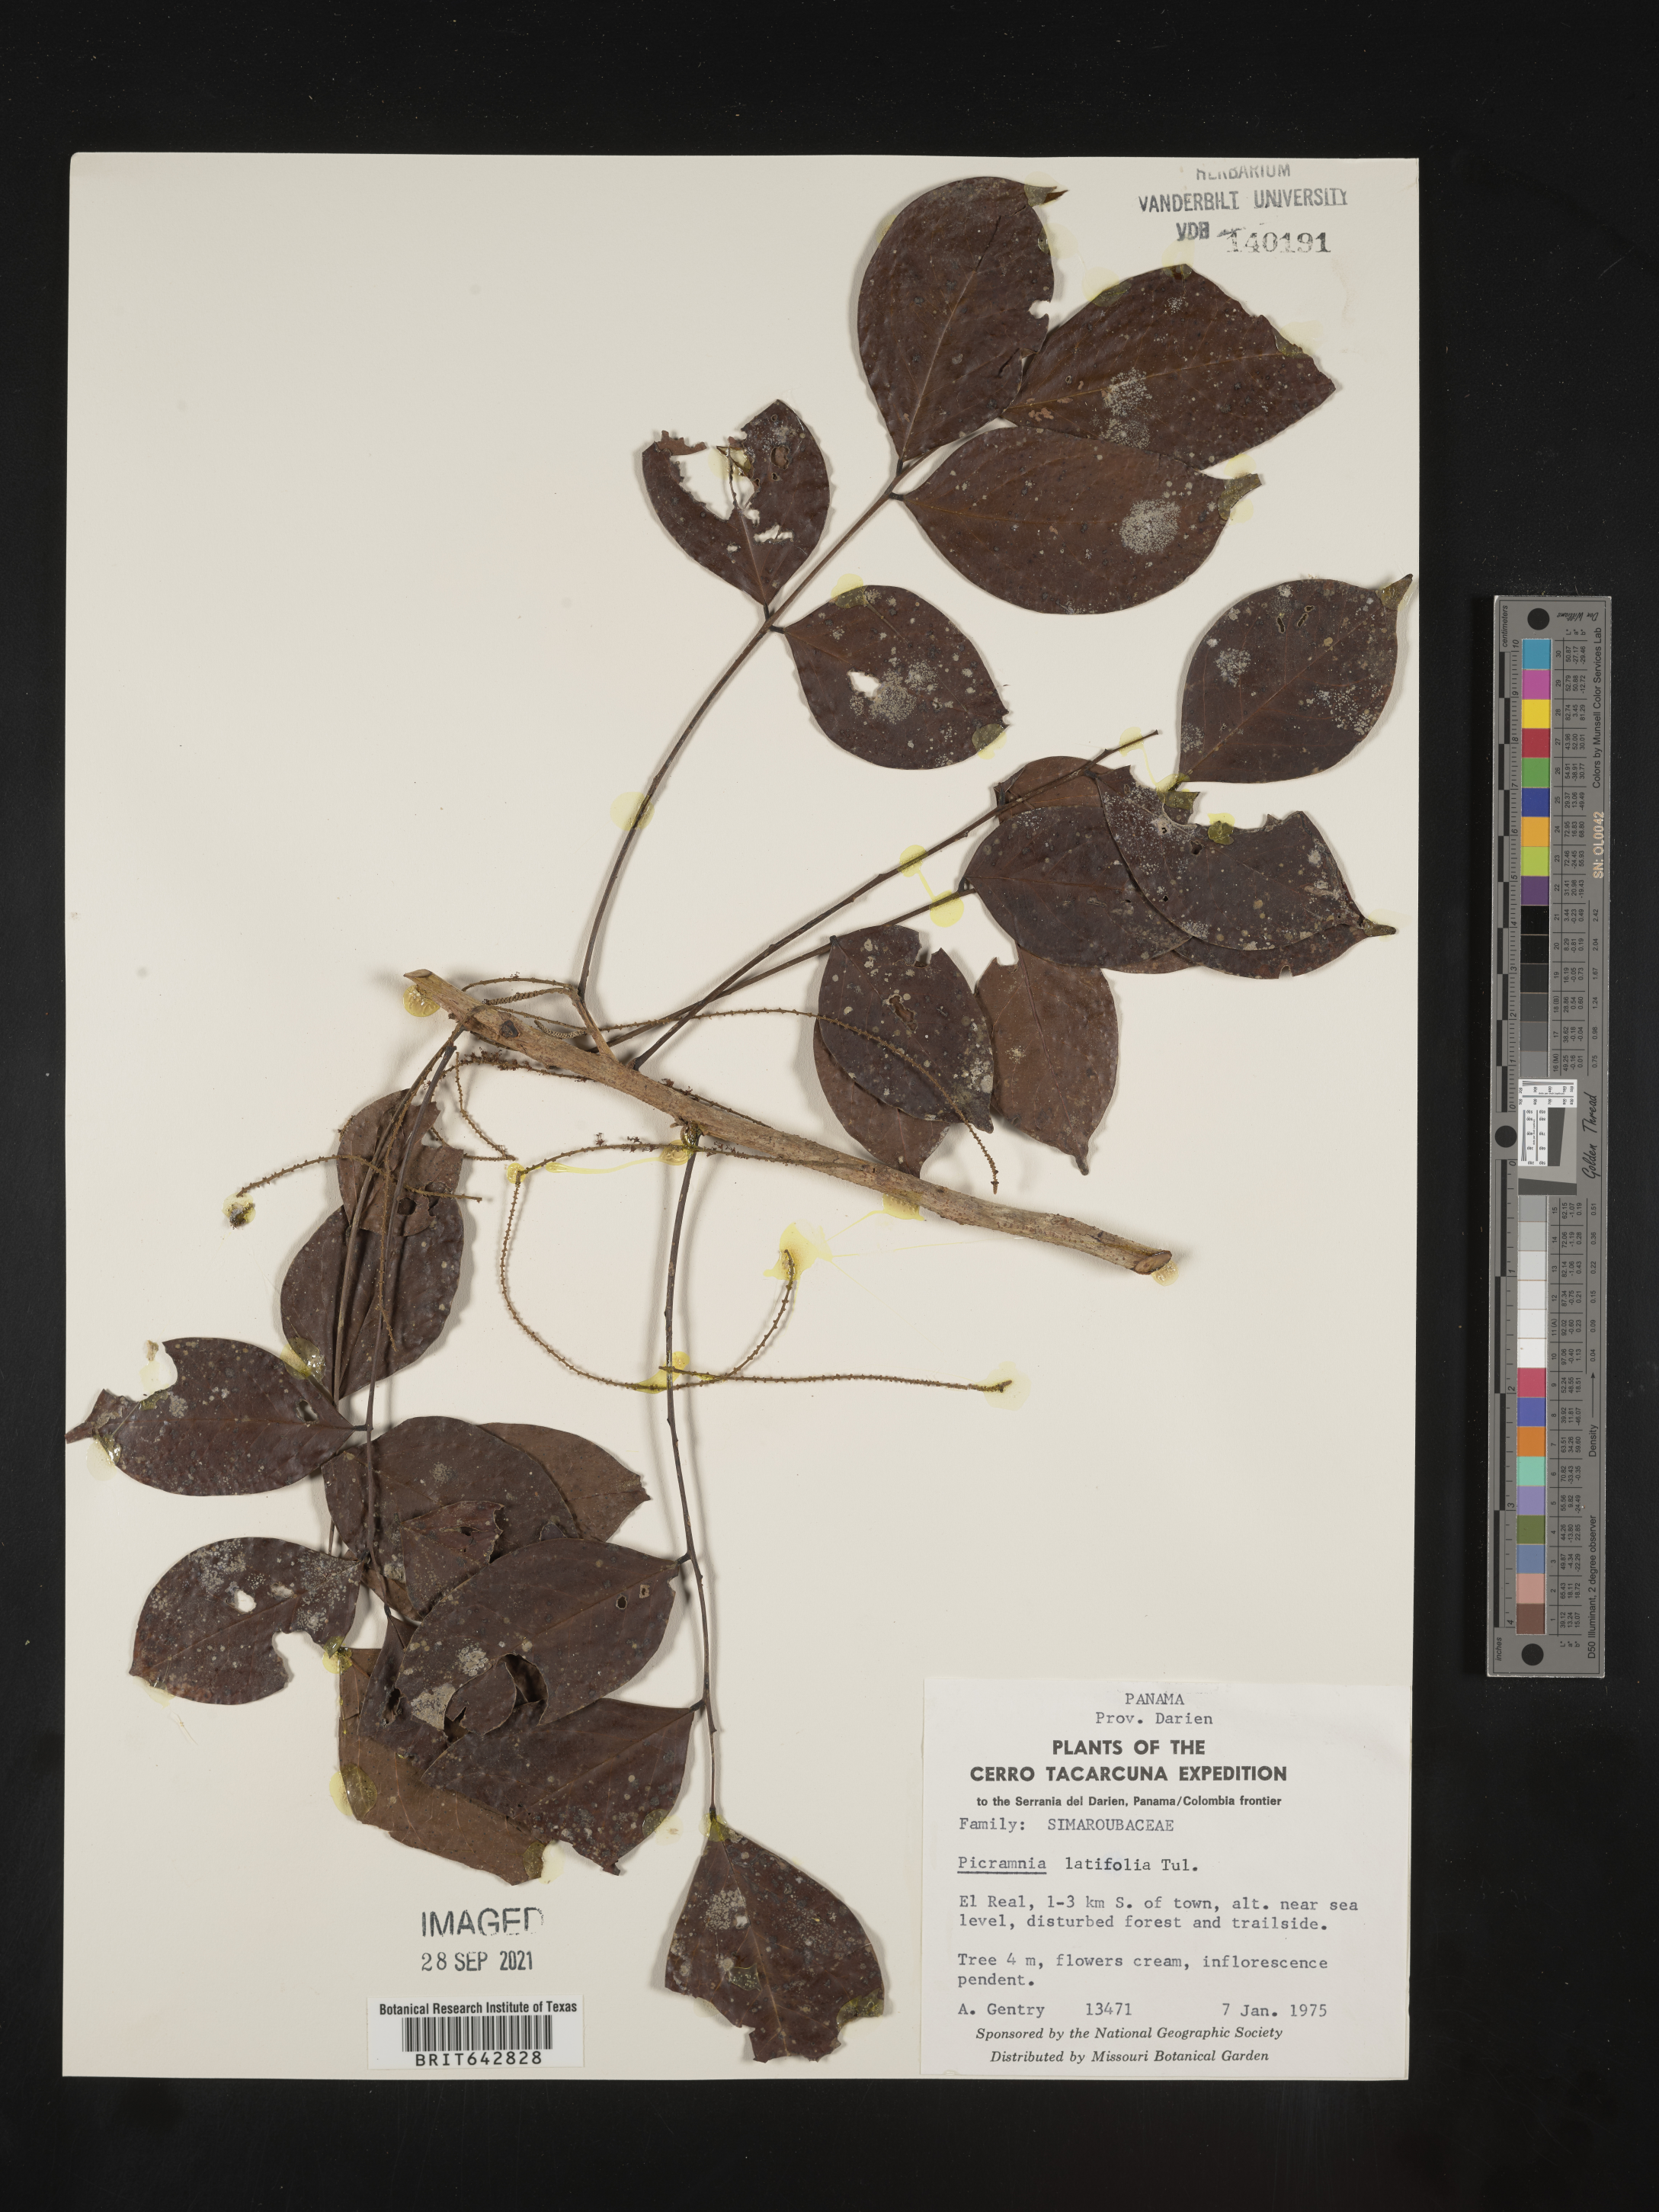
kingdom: Plantae
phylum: Tracheophyta
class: Magnoliopsida
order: Picramniales
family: Picramniaceae
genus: Picramnia
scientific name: Picramnia
